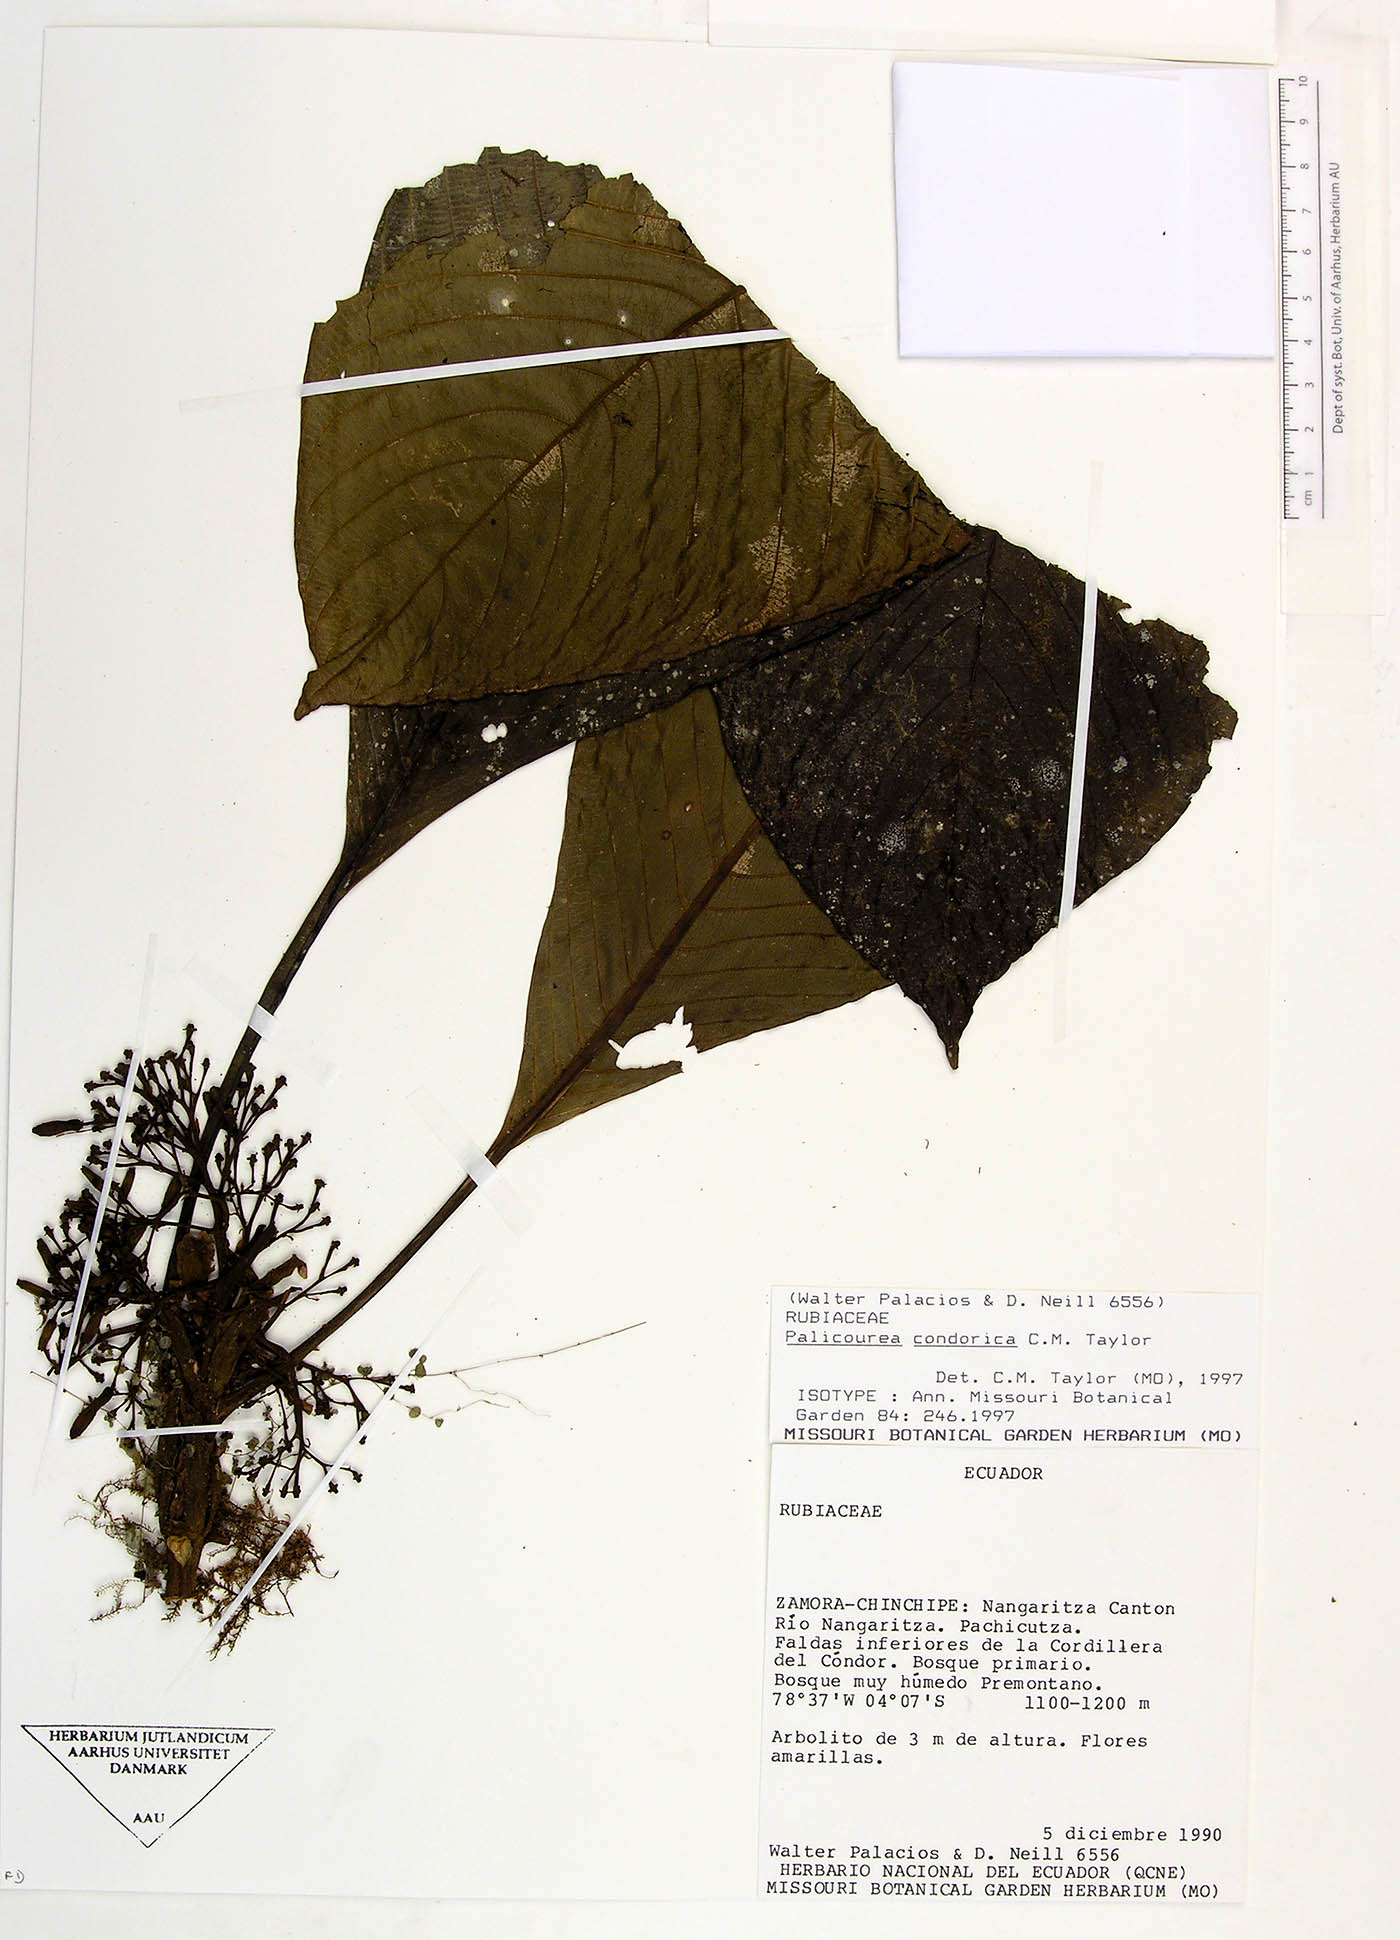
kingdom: Plantae
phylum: Tracheophyta
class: Magnoliopsida
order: Gentianales
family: Rubiaceae
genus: Palicourea
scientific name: Palicourea condorica
